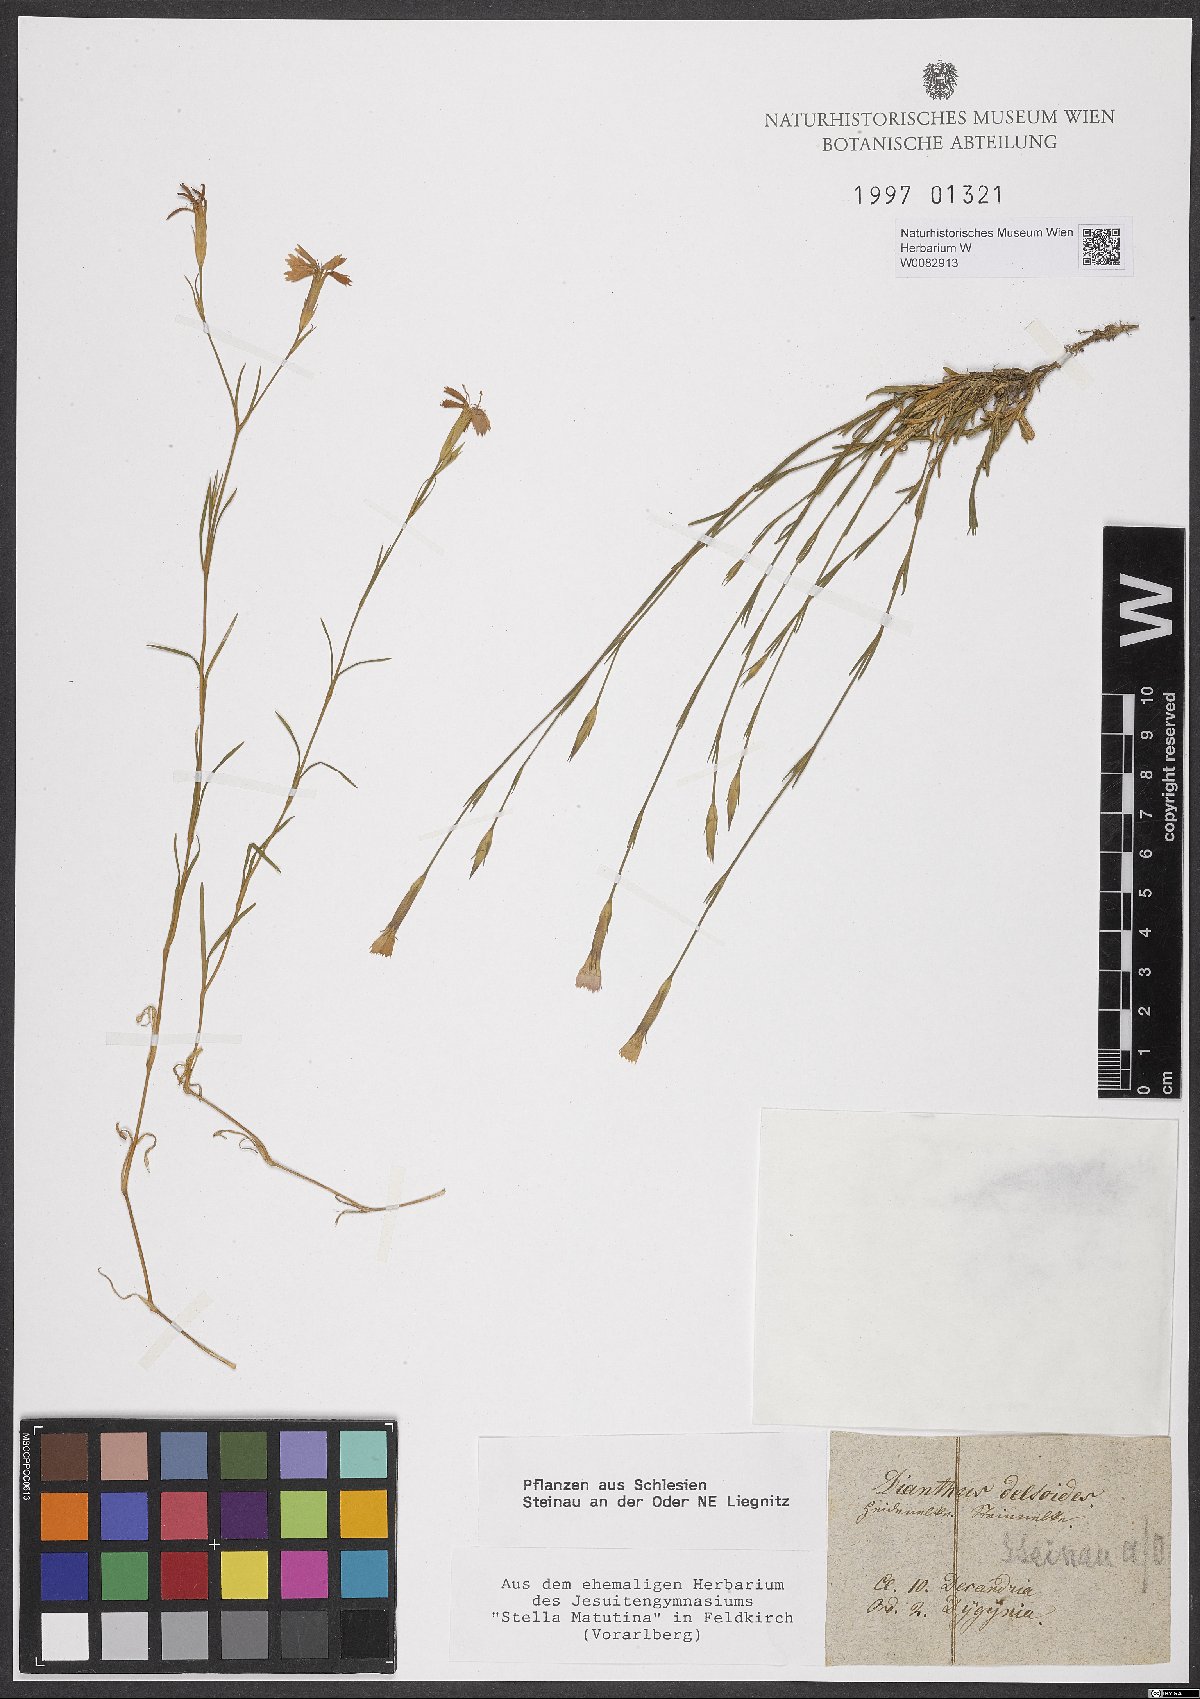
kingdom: Plantae
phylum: Tracheophyta
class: Magnoliopsida
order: Caryophyllales
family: Caryophyllaceae
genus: Dianthus
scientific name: Dianthus deltoides
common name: Maiden pink
